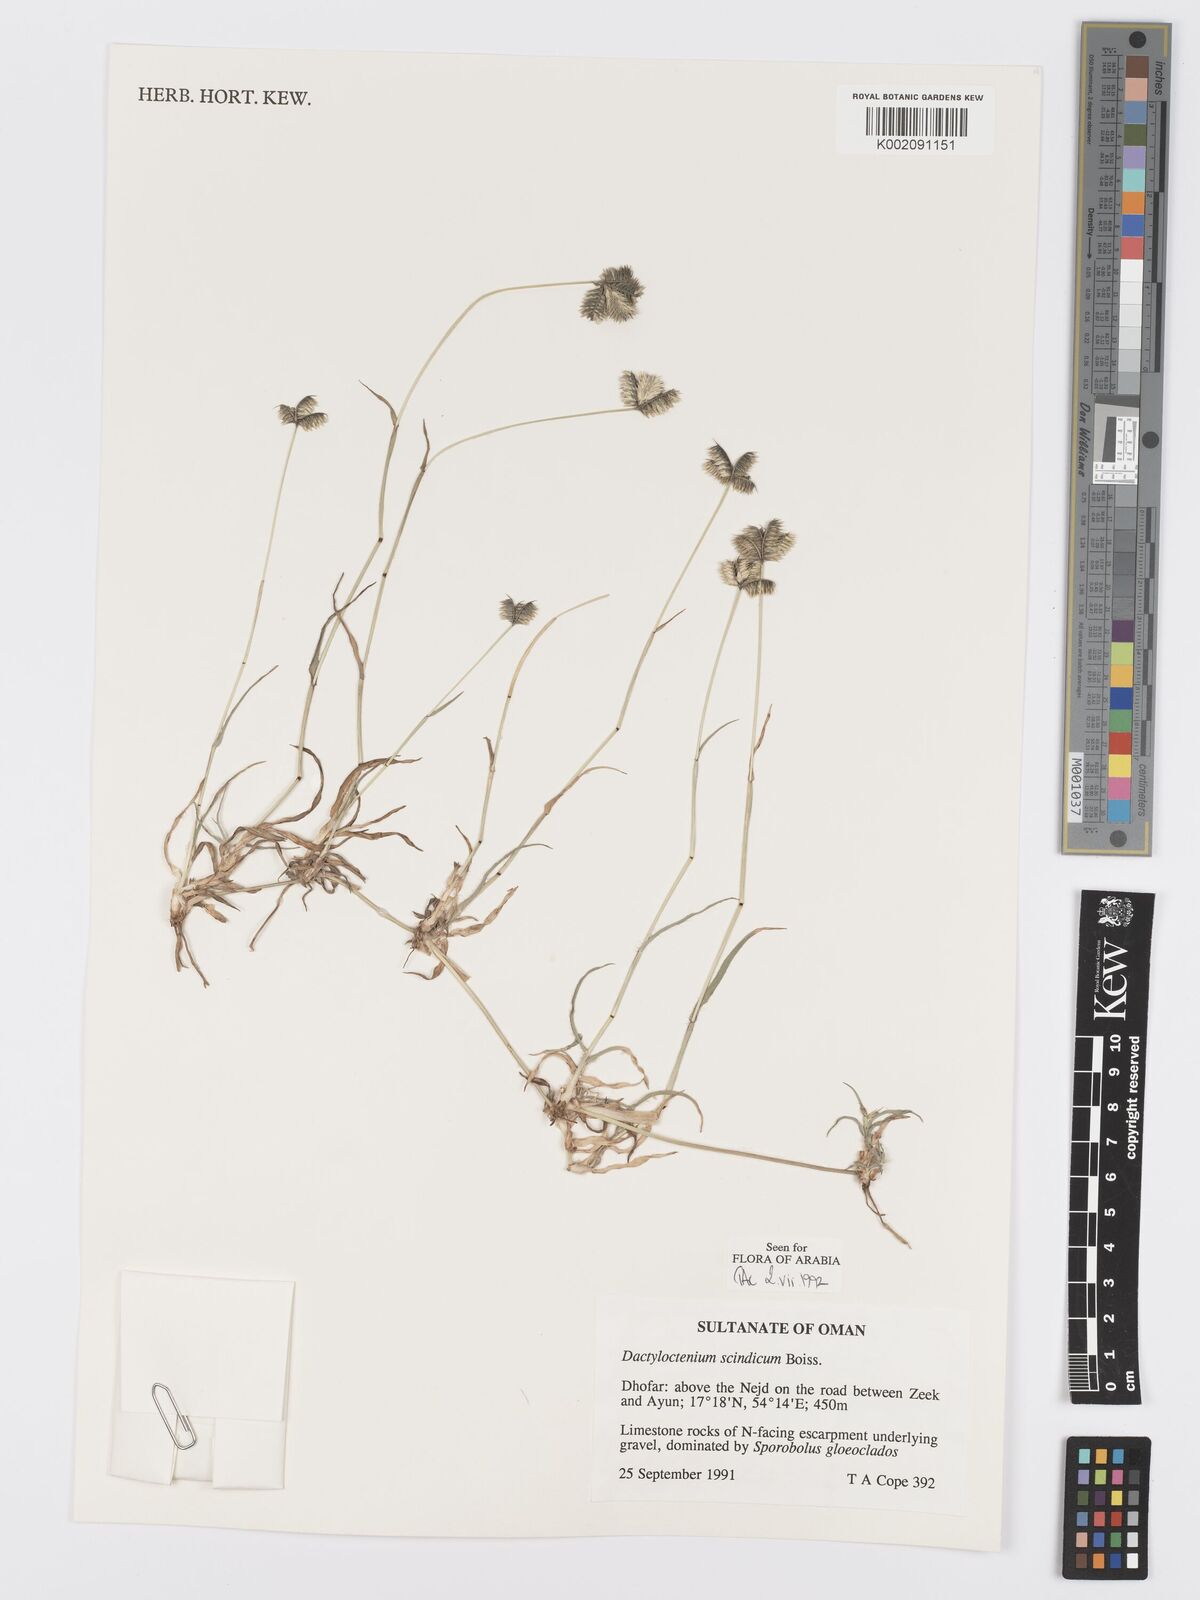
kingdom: Plantae
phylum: Tracheophyta
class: Liliopsida
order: Poales
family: Poaceae
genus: Dactyloctenium
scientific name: Dactyloctenium scindicum
